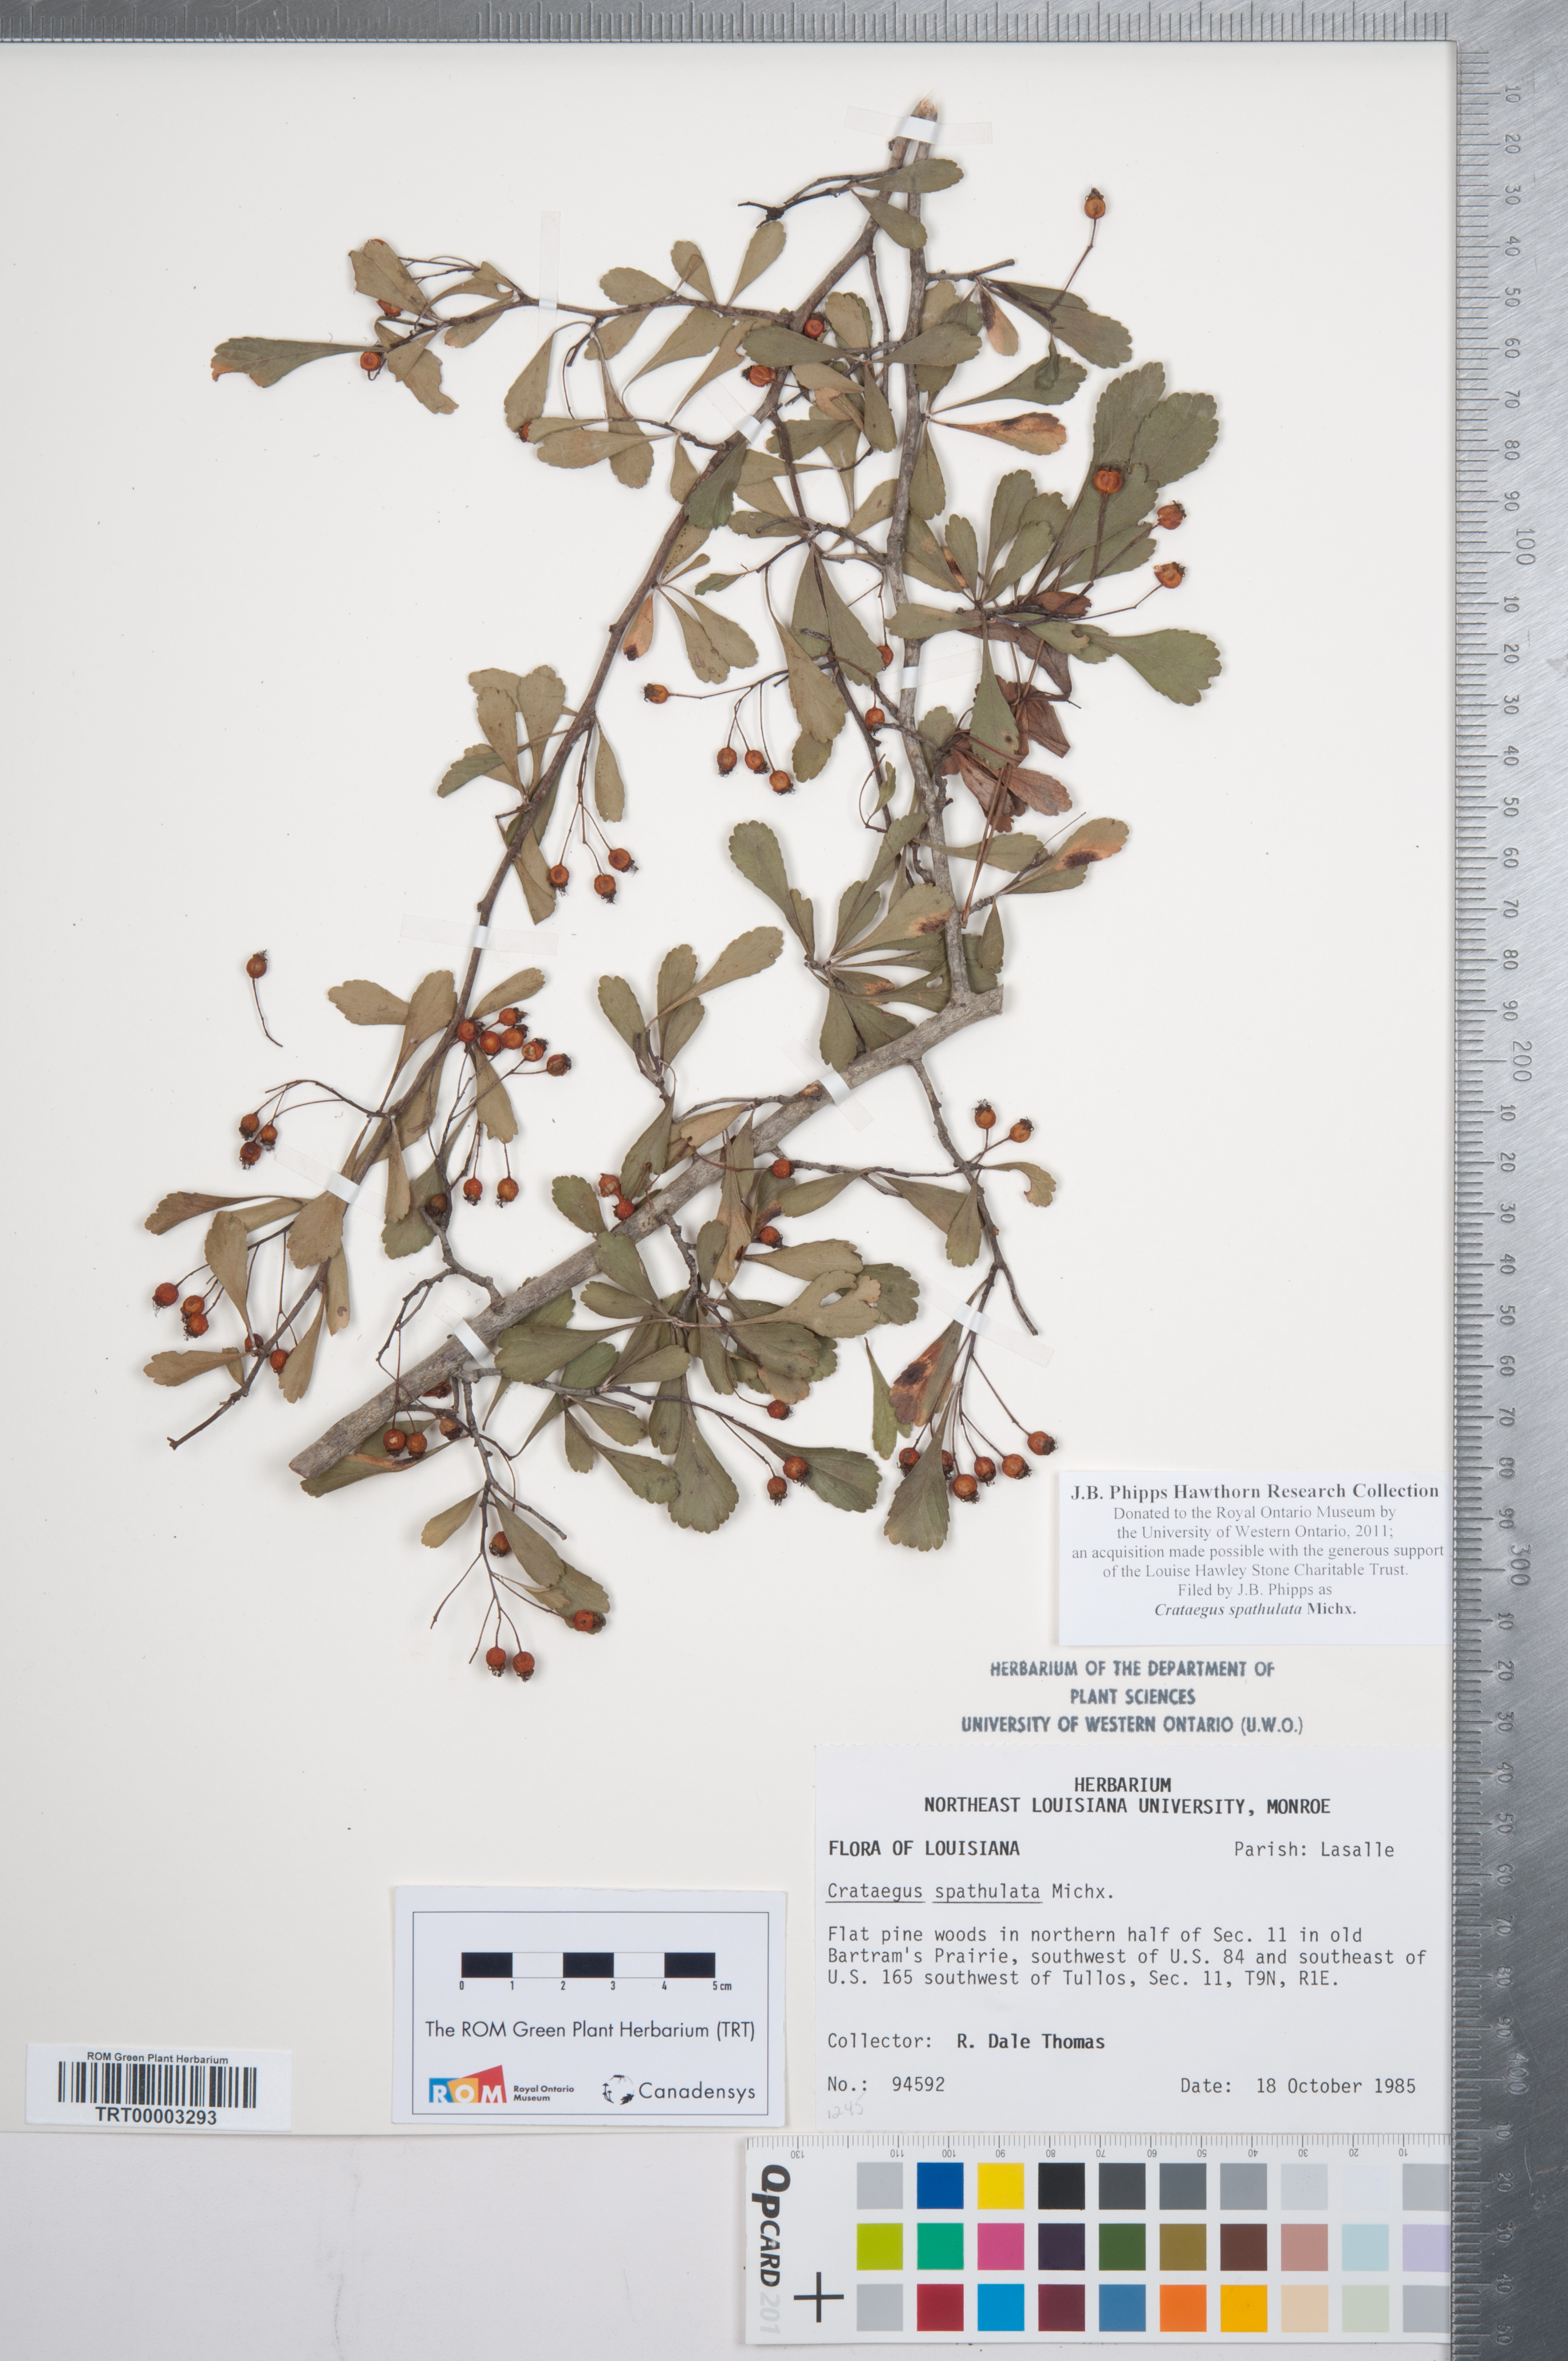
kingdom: Plantae
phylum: Tracheophyta
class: Magnoliopsida
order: Rosales
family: Rosaceae
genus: Crataegus
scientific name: Crataegus spathulata
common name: Littlehip hawthorn
